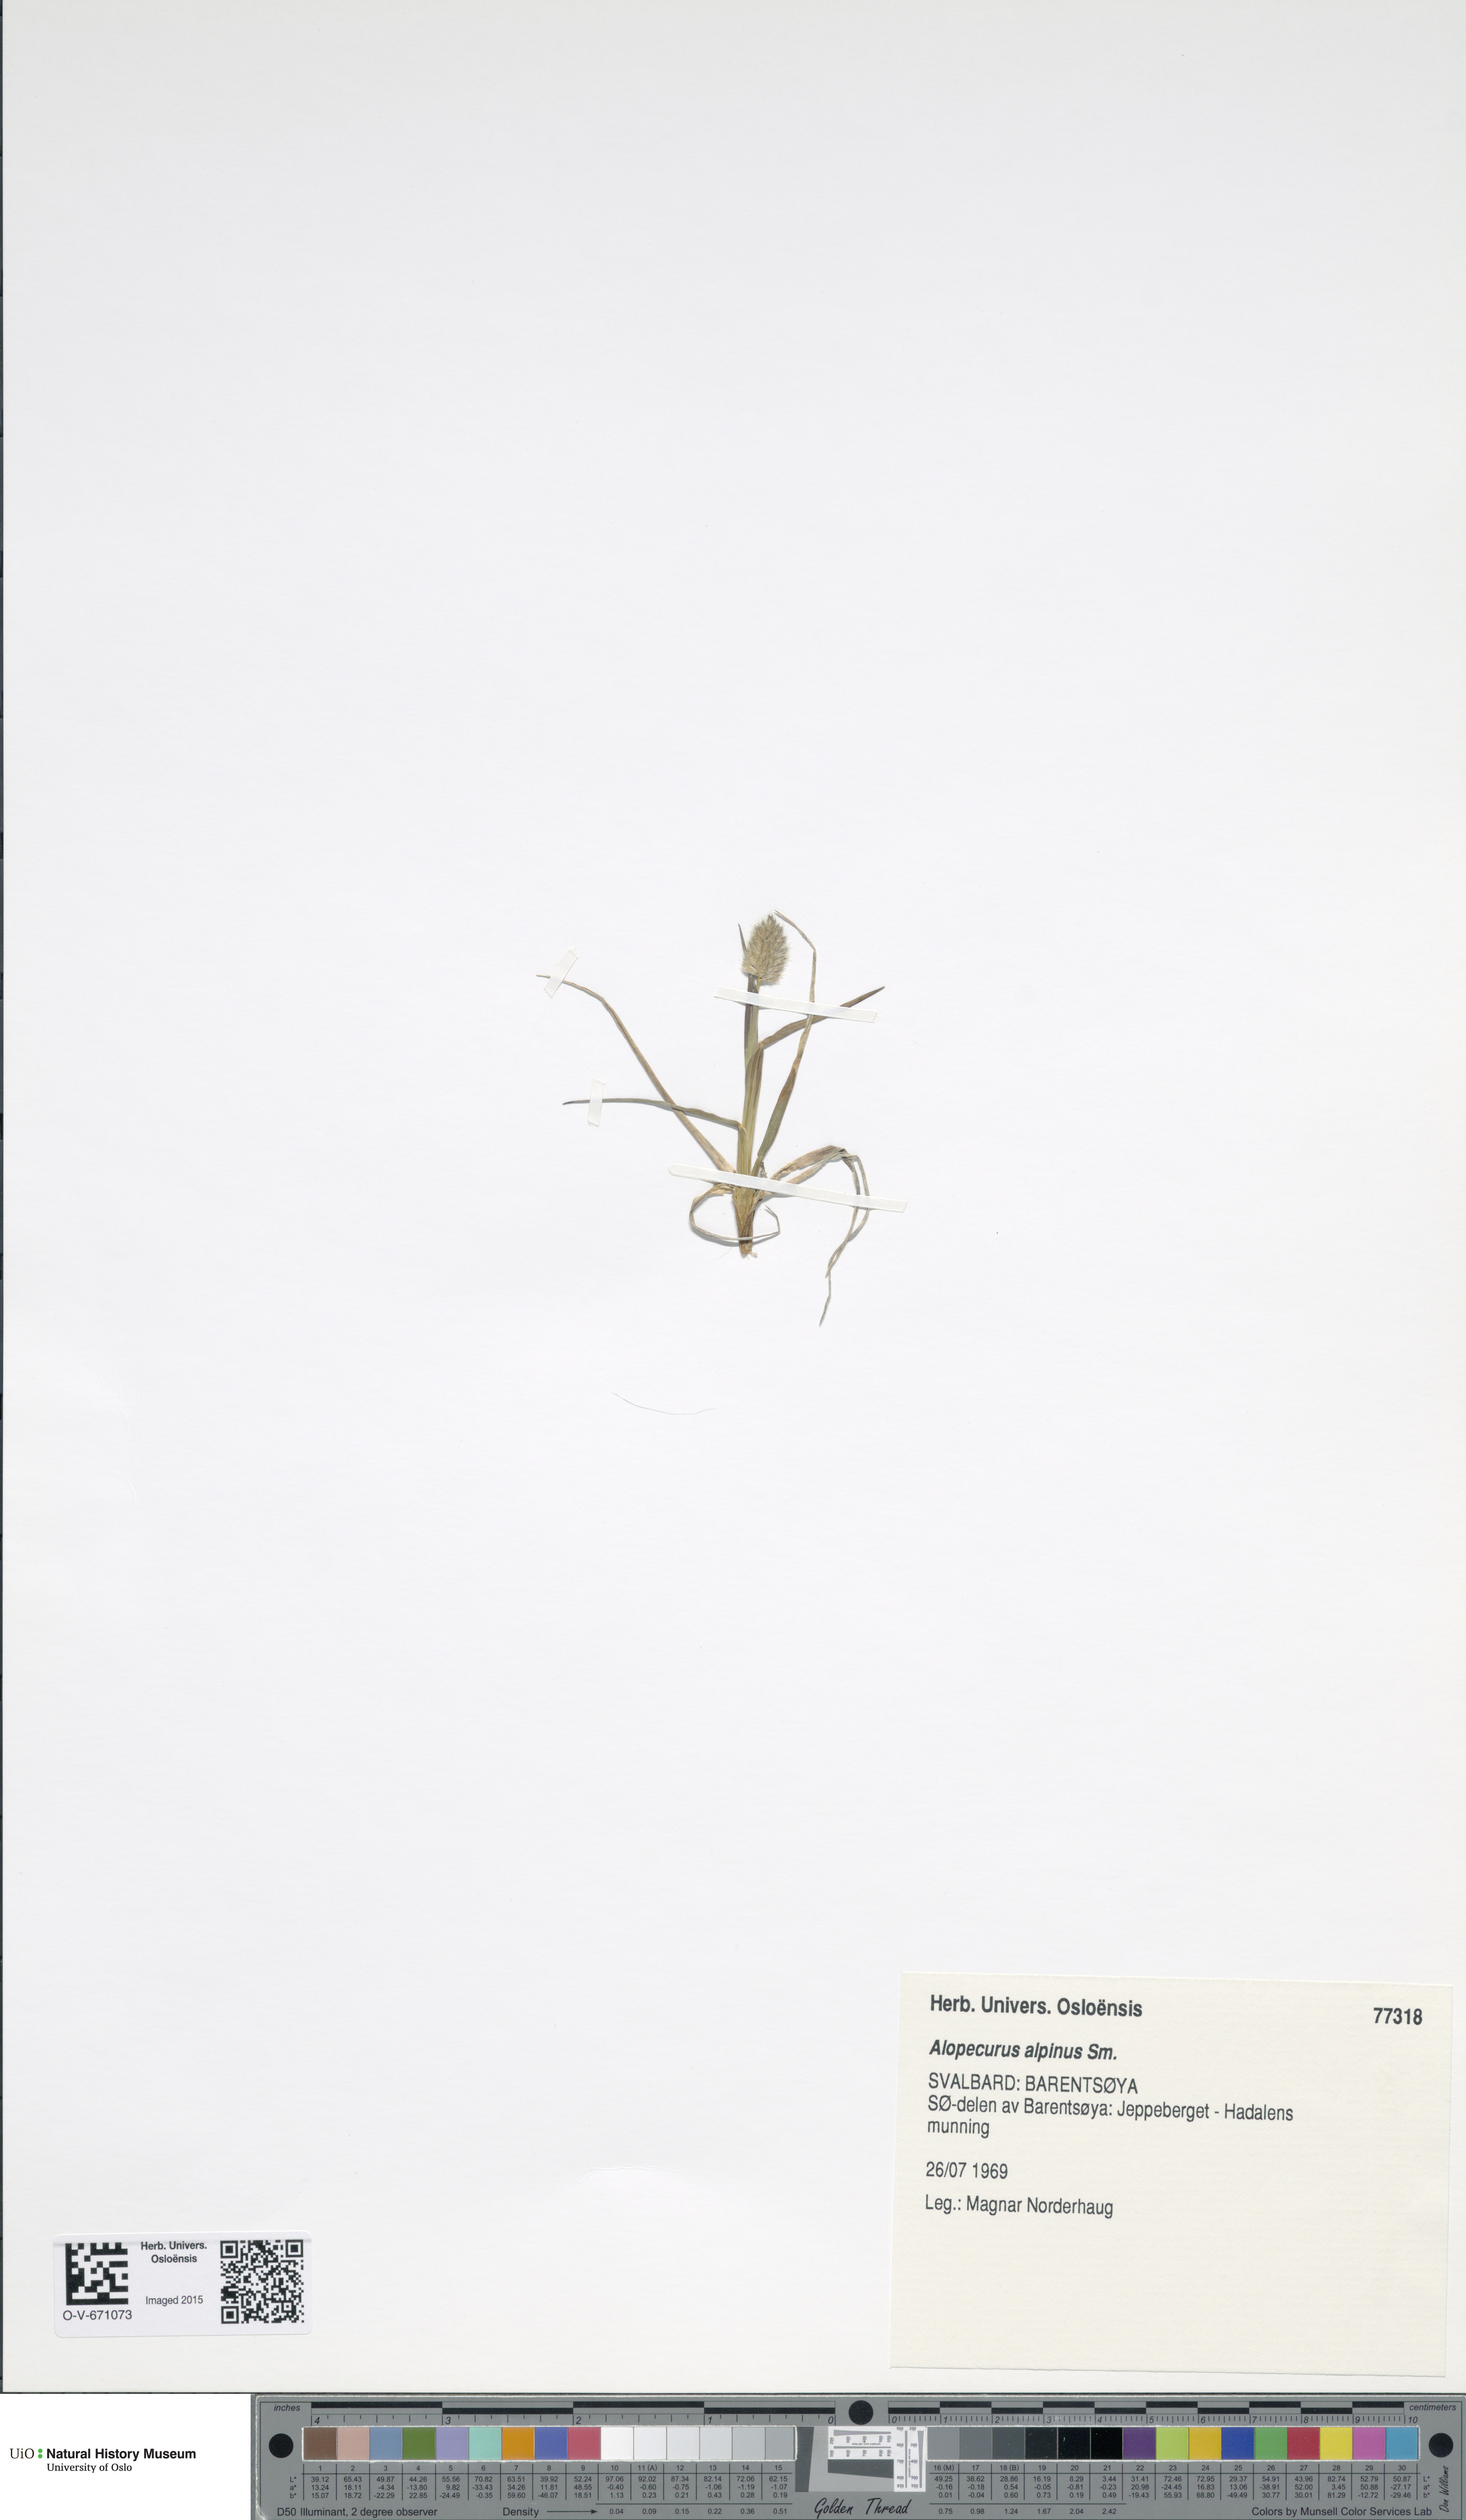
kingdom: Plantae
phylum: Tracheophyta
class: Liliopsida
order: Poales
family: Poaceae
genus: Alopecurus
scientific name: Alopecurus magellanicus
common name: Alpine foxtail
